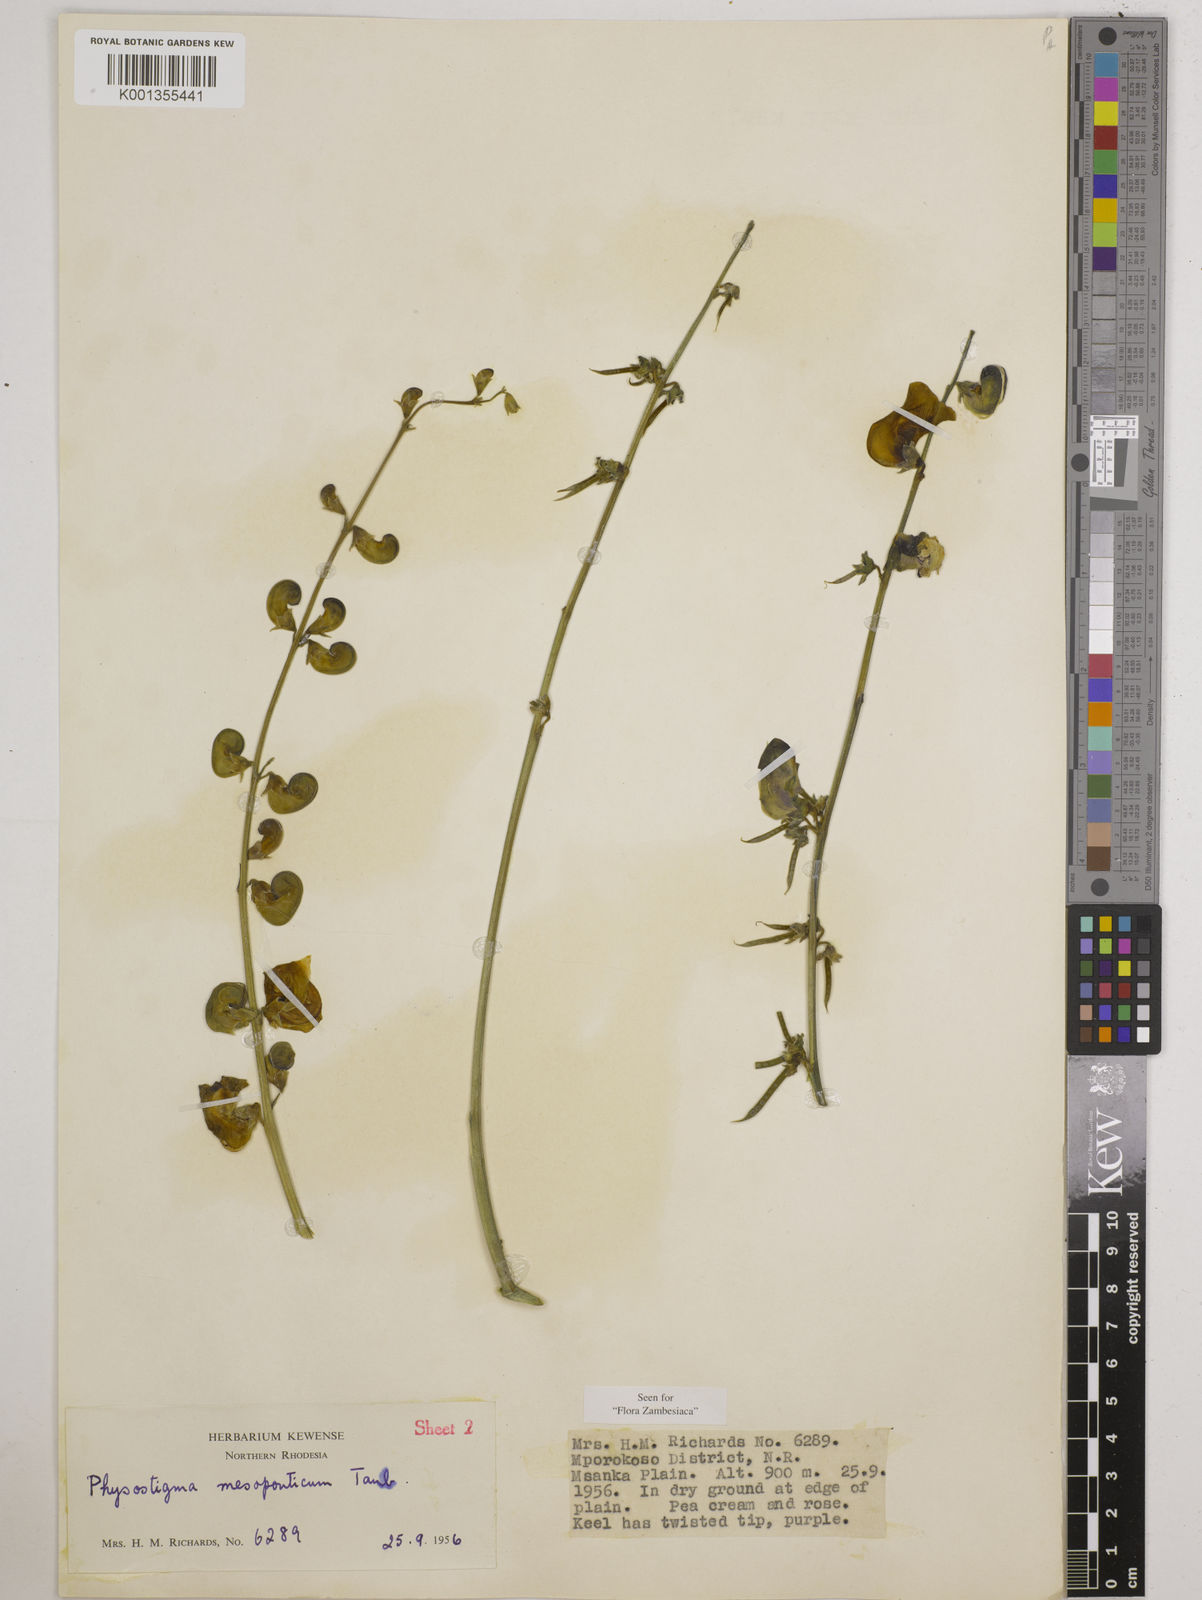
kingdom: Plantae
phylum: Tracheophyta
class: Magnoliopsida
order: Fabales
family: Fabaceae
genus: Physostigma
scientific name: Physostigma mesoponticum
